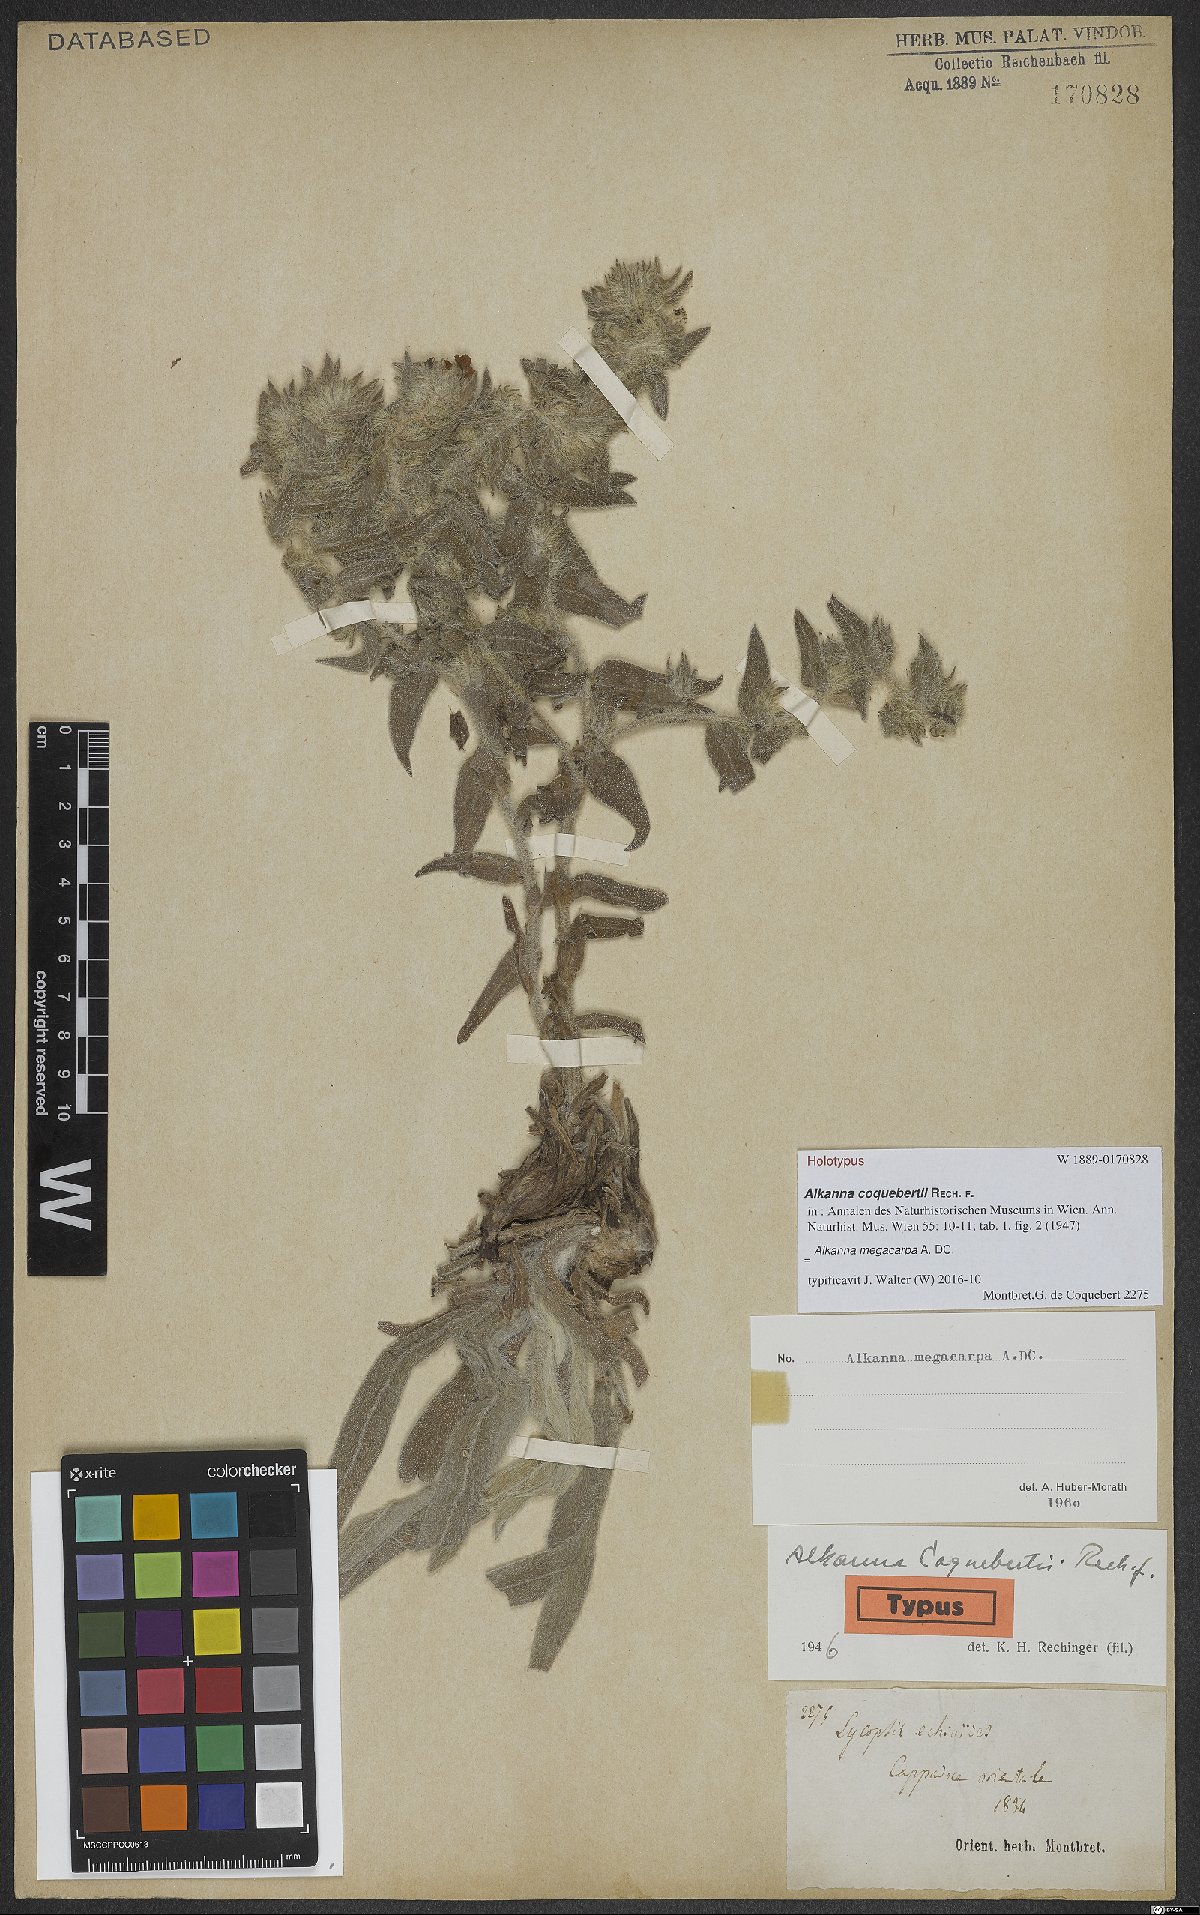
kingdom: Plantae
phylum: Tracheophyta
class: Magnoliopsida
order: Boraginales
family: Boraginaceae
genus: Alkanna
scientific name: Alkanna megacarpa
